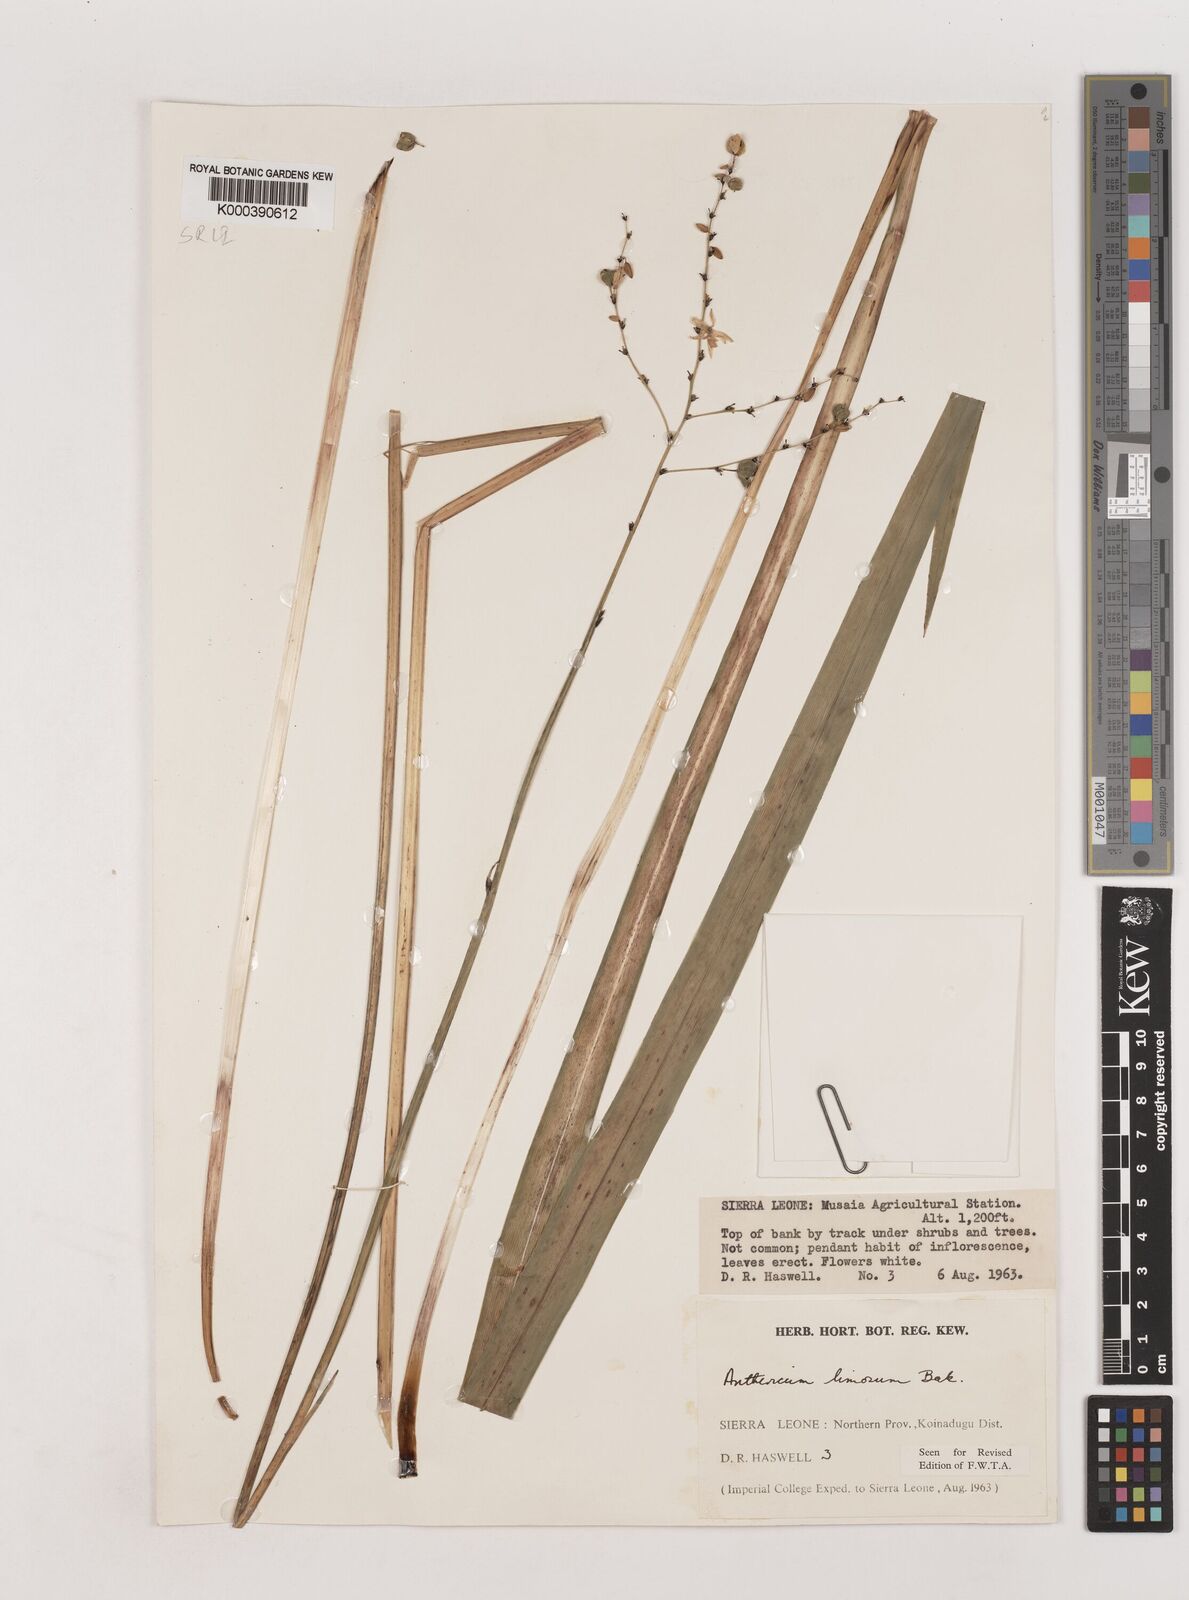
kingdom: Plantae
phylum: Tracheophyta
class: Liliopsida
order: Asparagales
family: Asparagaceae
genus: Chlorophytum
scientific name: Chlorophytum limosum
